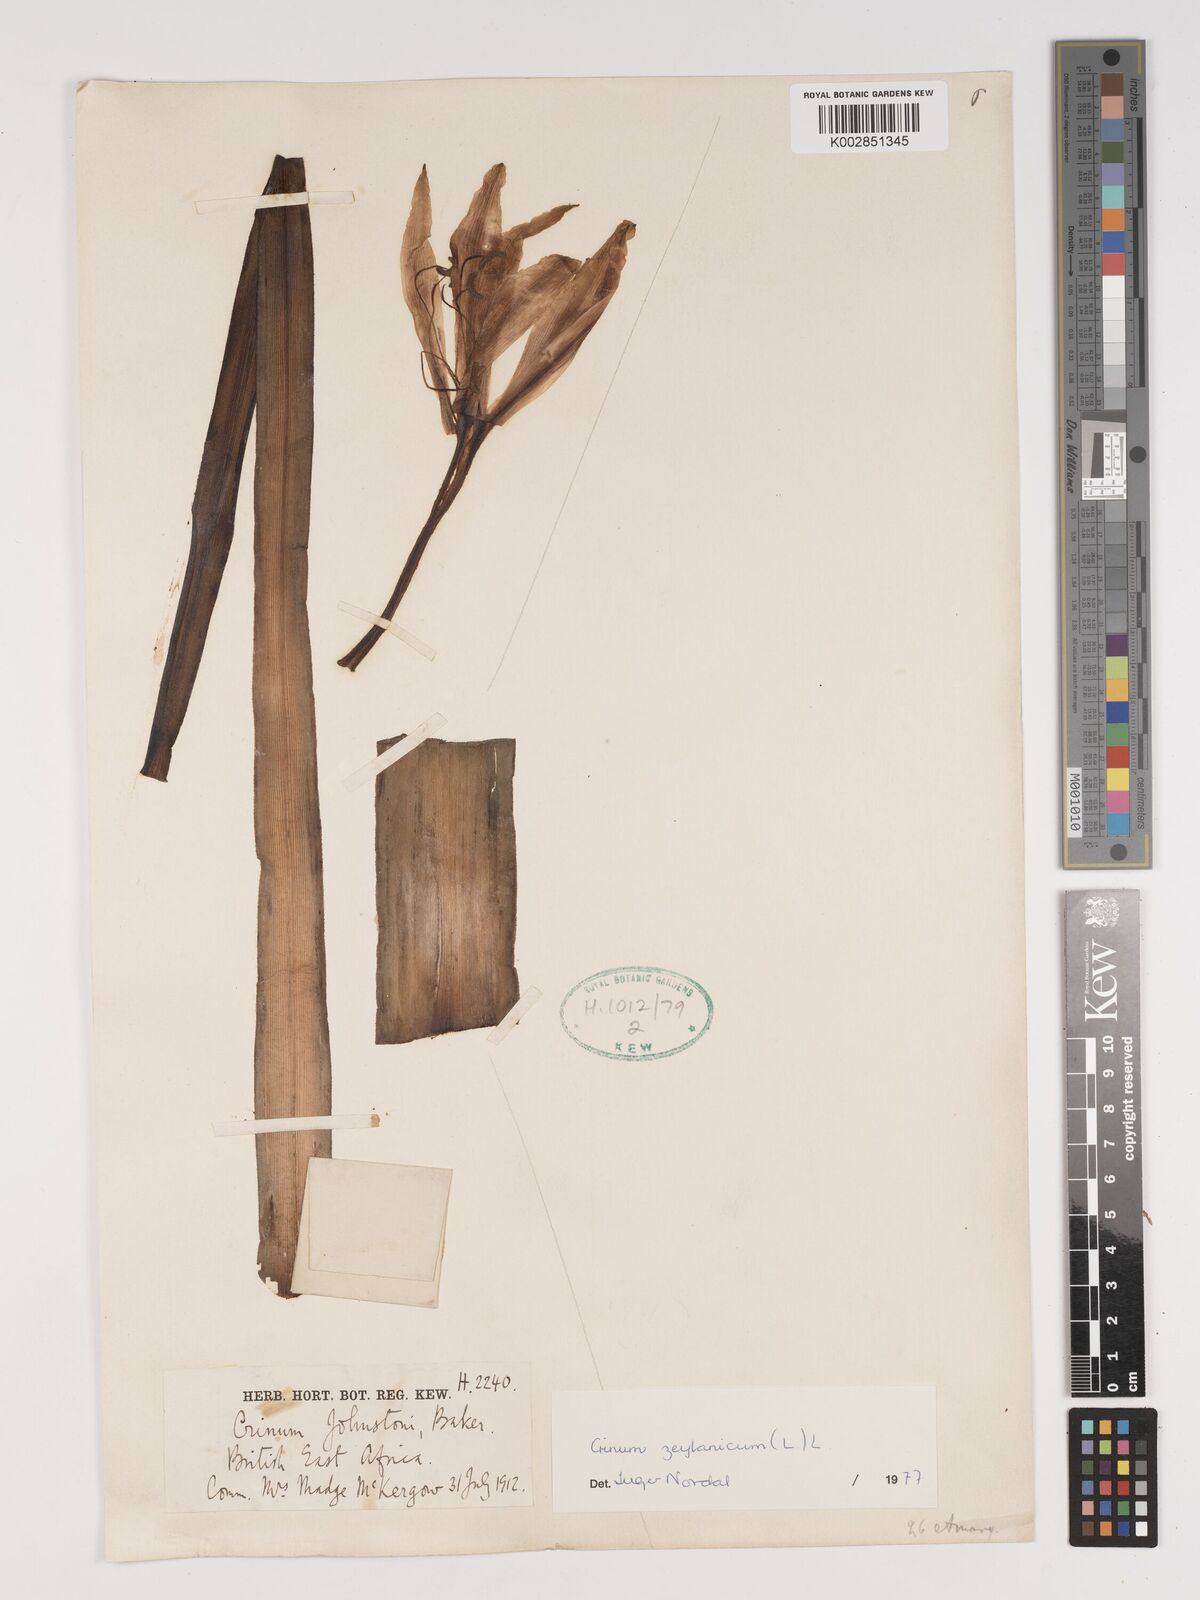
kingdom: Plantae
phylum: Tracheophyta
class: Liliopsida
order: Asparagales
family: Amaryllidaceae
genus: Crinum
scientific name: Crinum zeylanicum
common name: Ceylon swamplily
